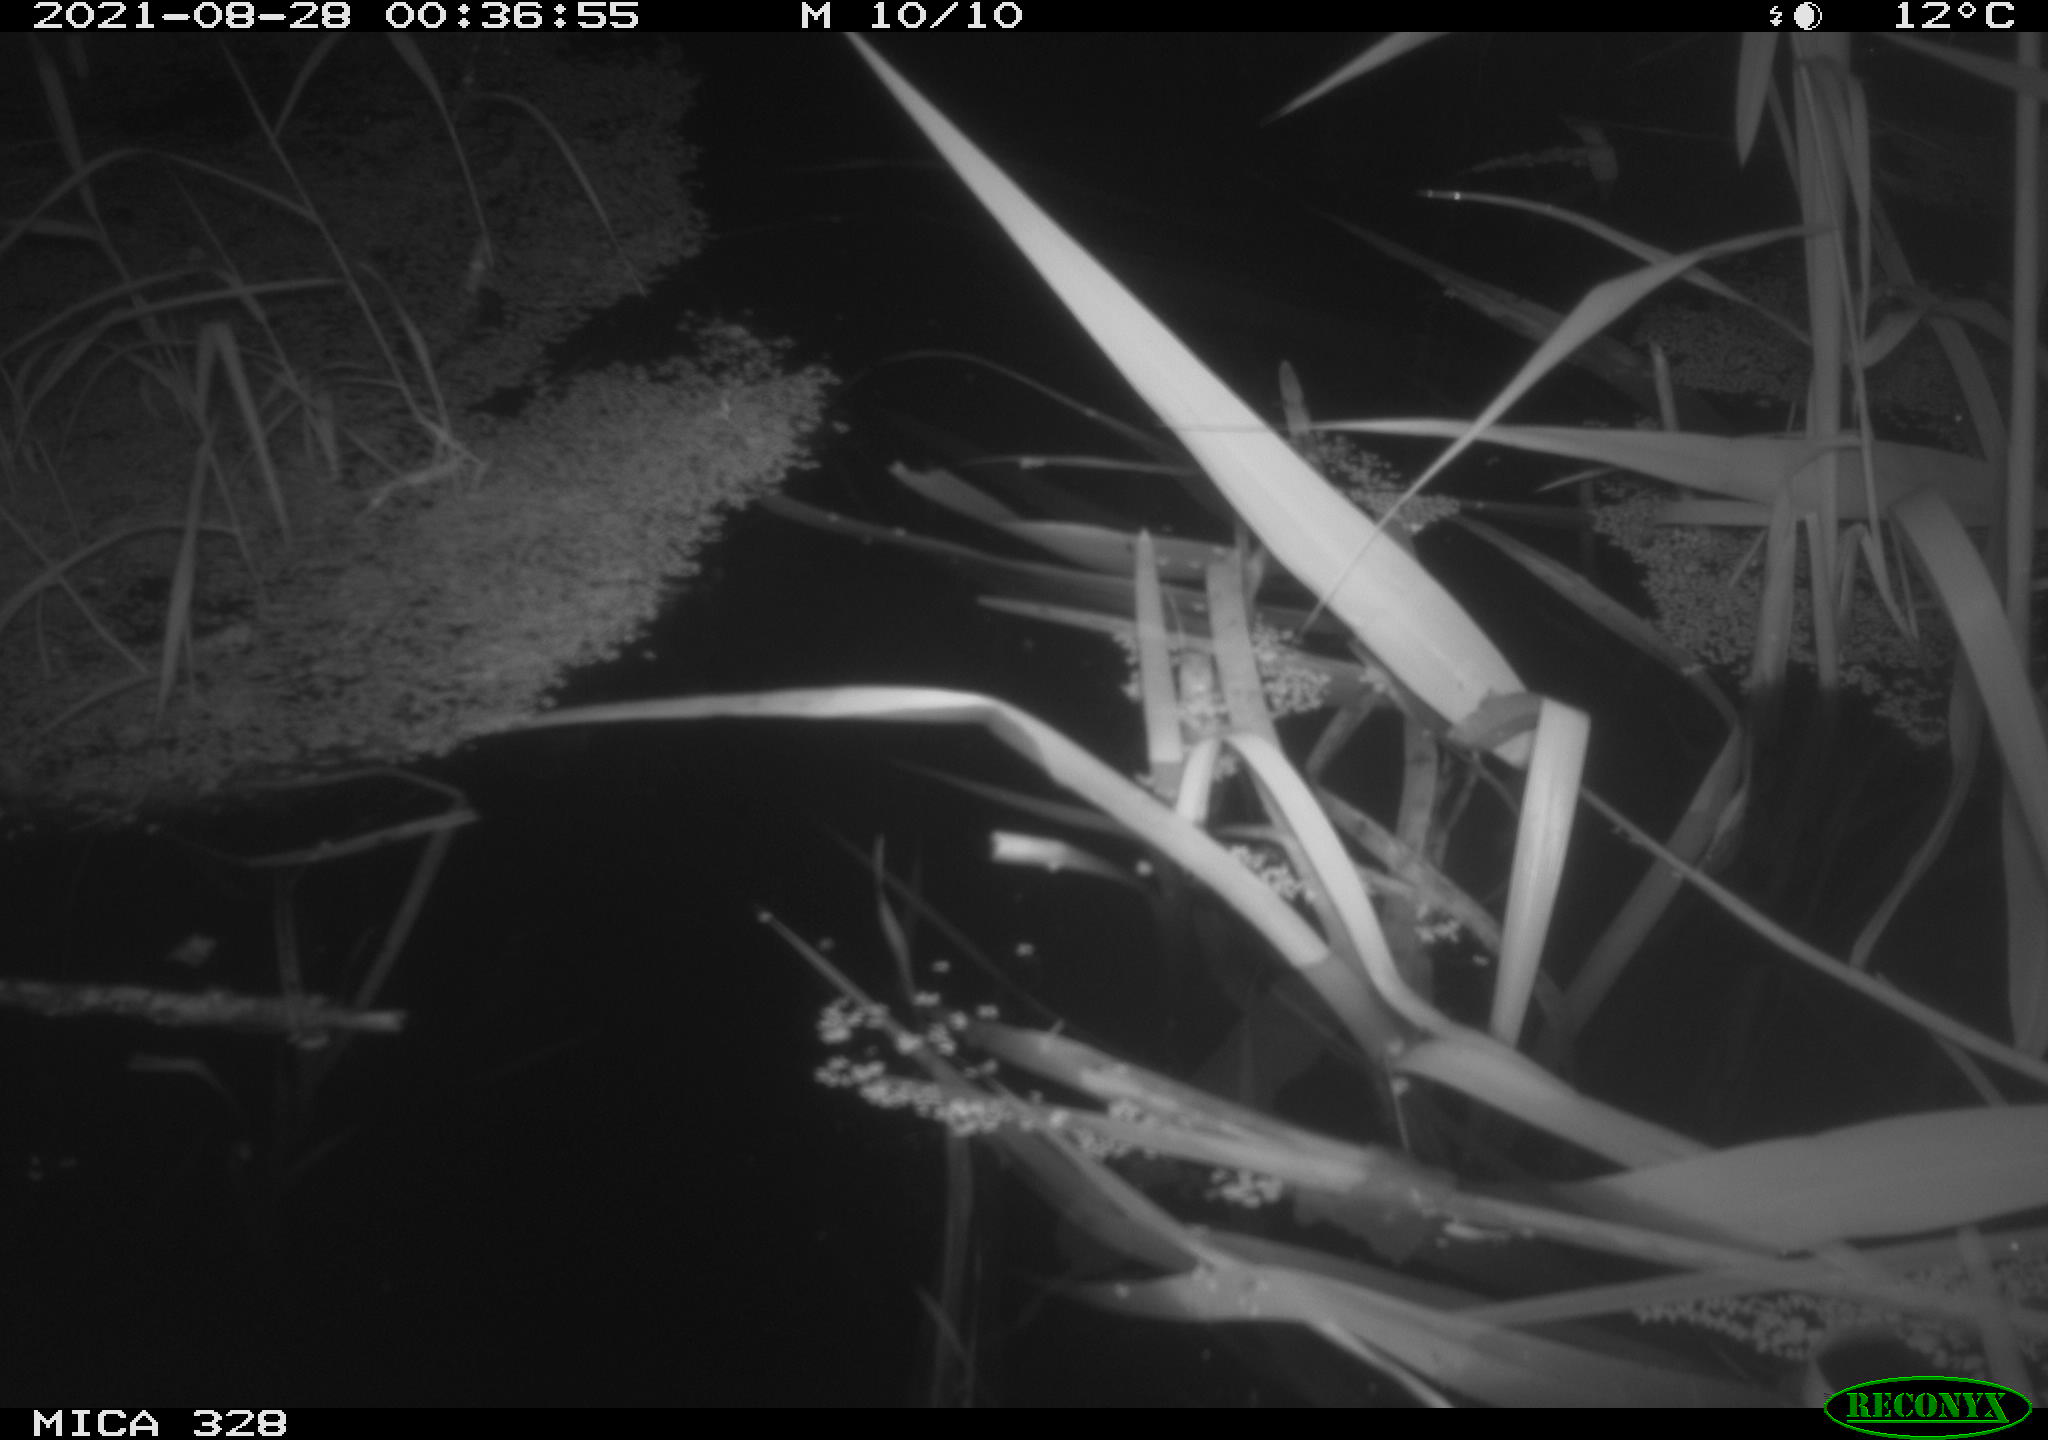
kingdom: Animalia
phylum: Chordata
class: Mammalia
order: Rodentia
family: Cricetidae
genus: Ondatra
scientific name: Ondatra zibethicus
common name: Muskrat
